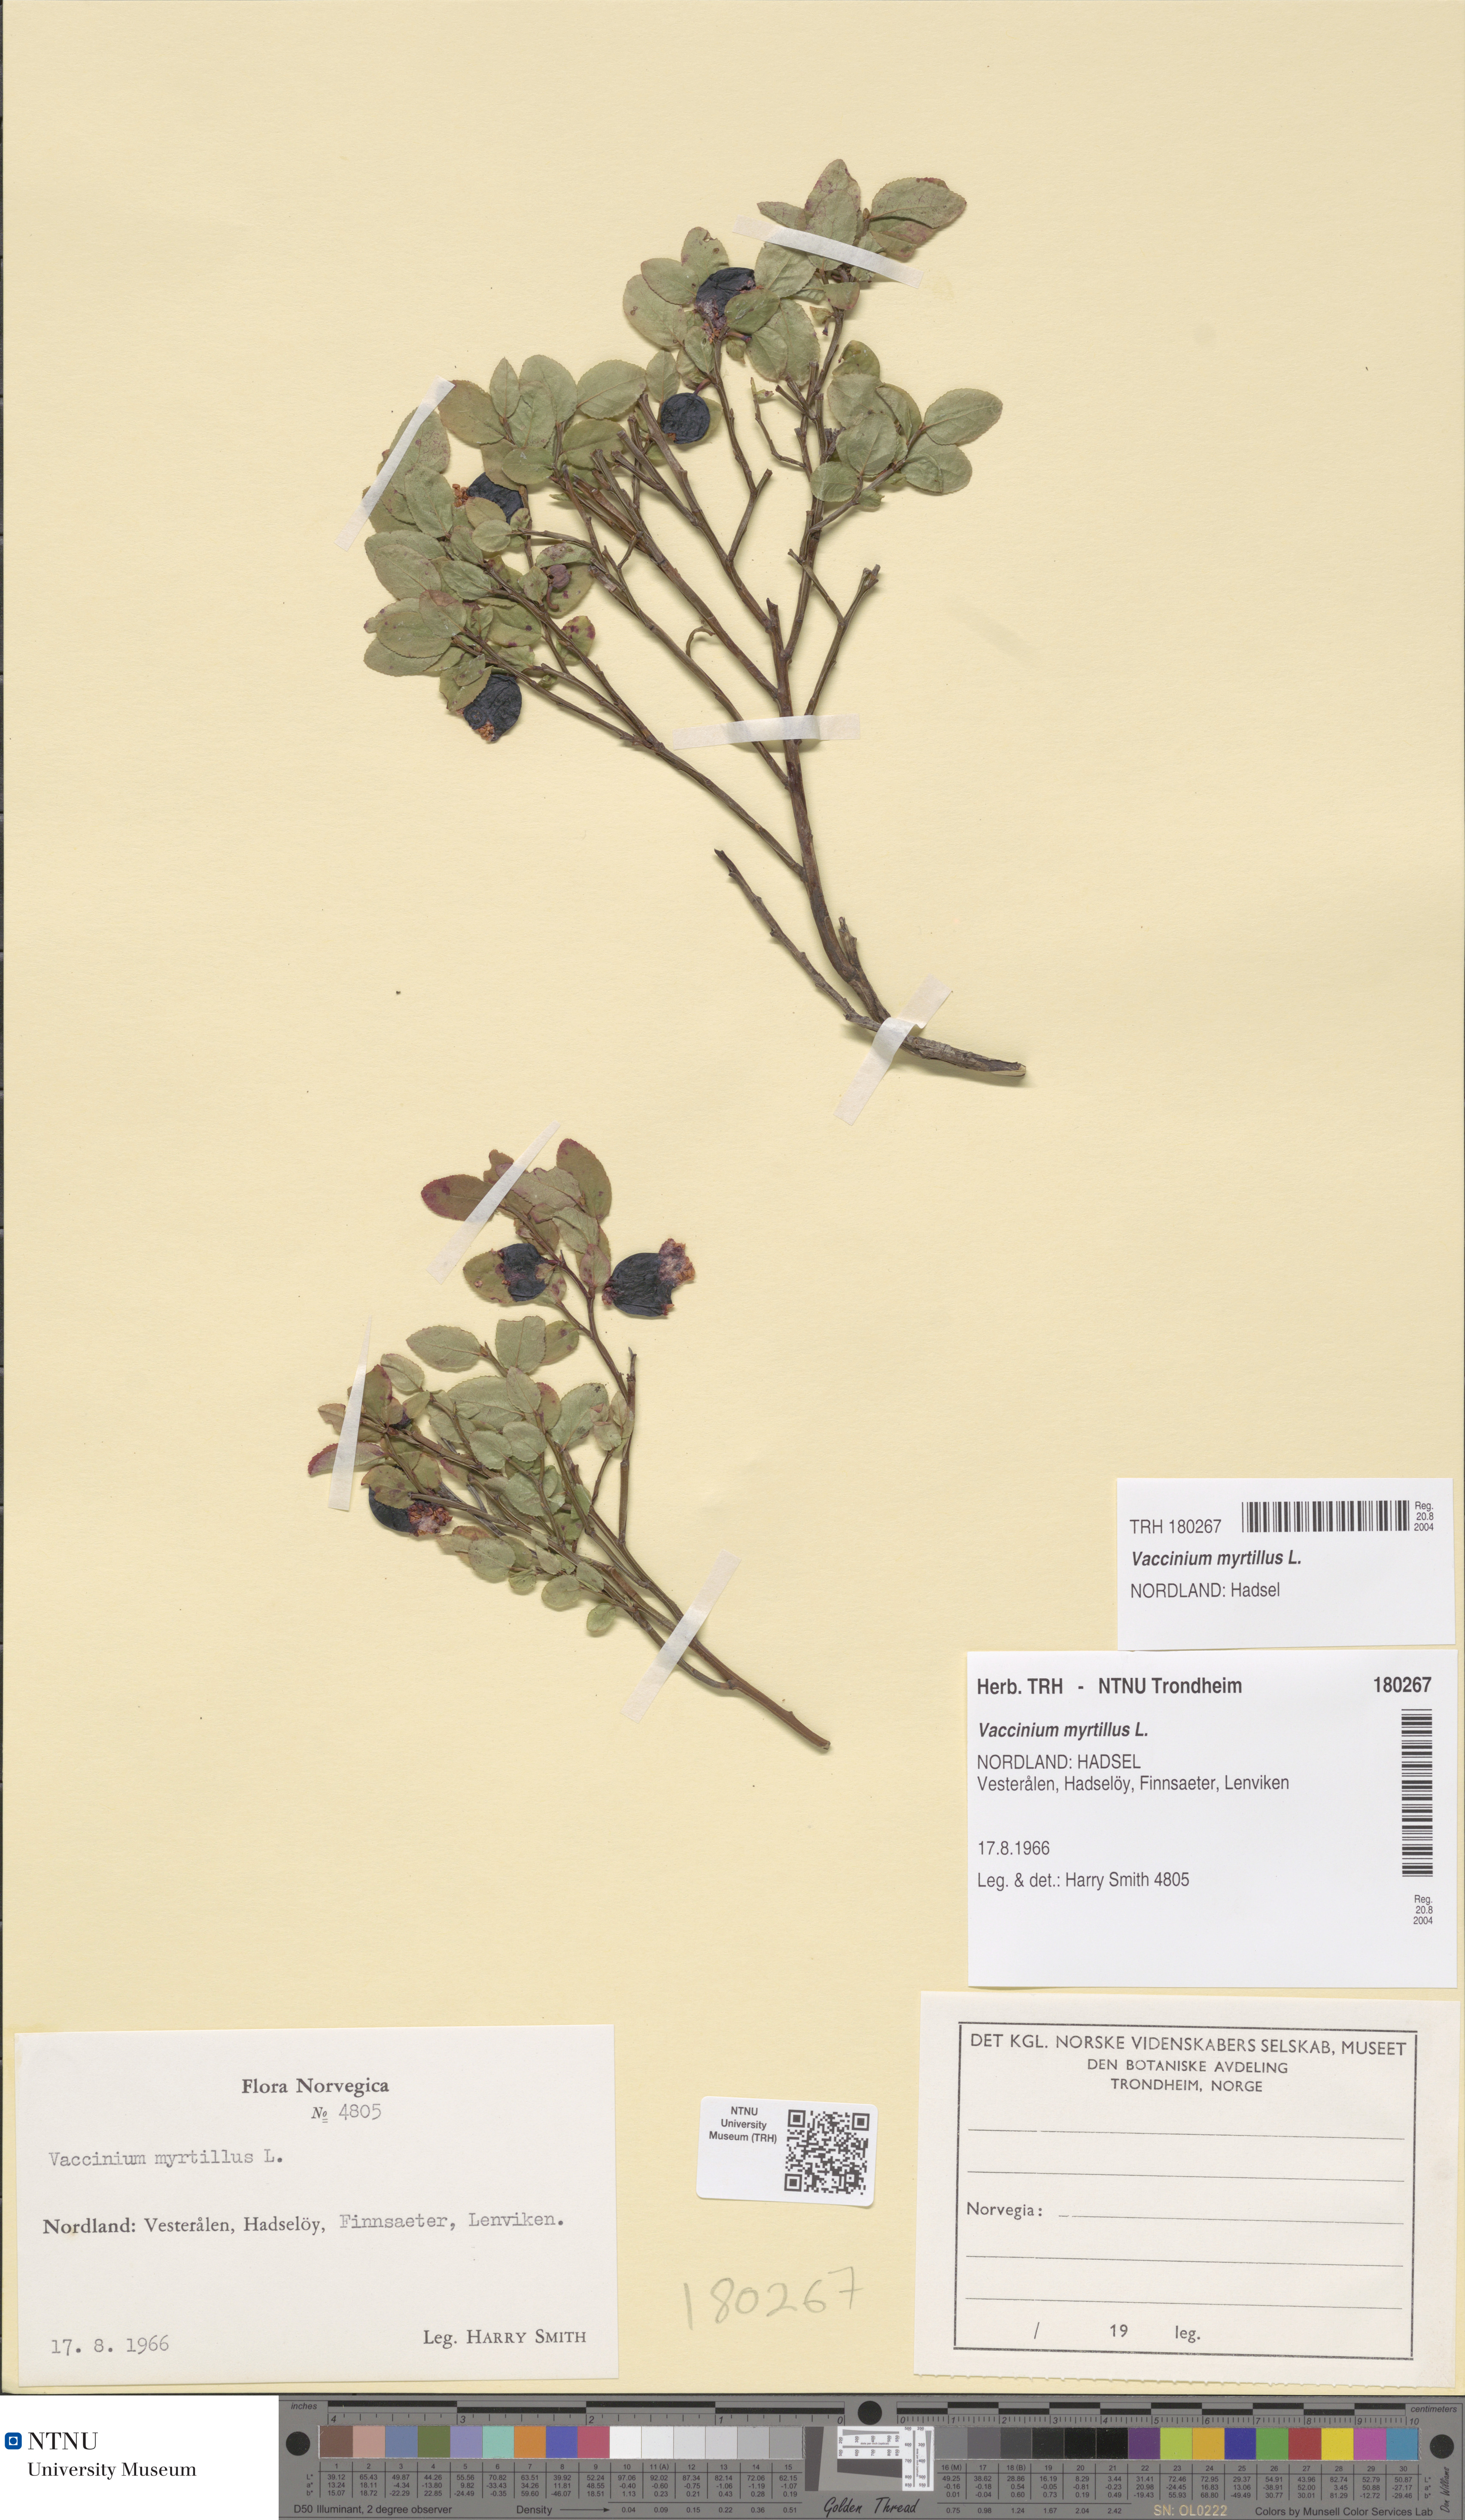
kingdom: Plantae
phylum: Tracheophyta
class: Magnoliopsida
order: Ericales
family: Ericaceae
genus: Vaccinium
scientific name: Vaccinium myrtillus
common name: Bilberry
